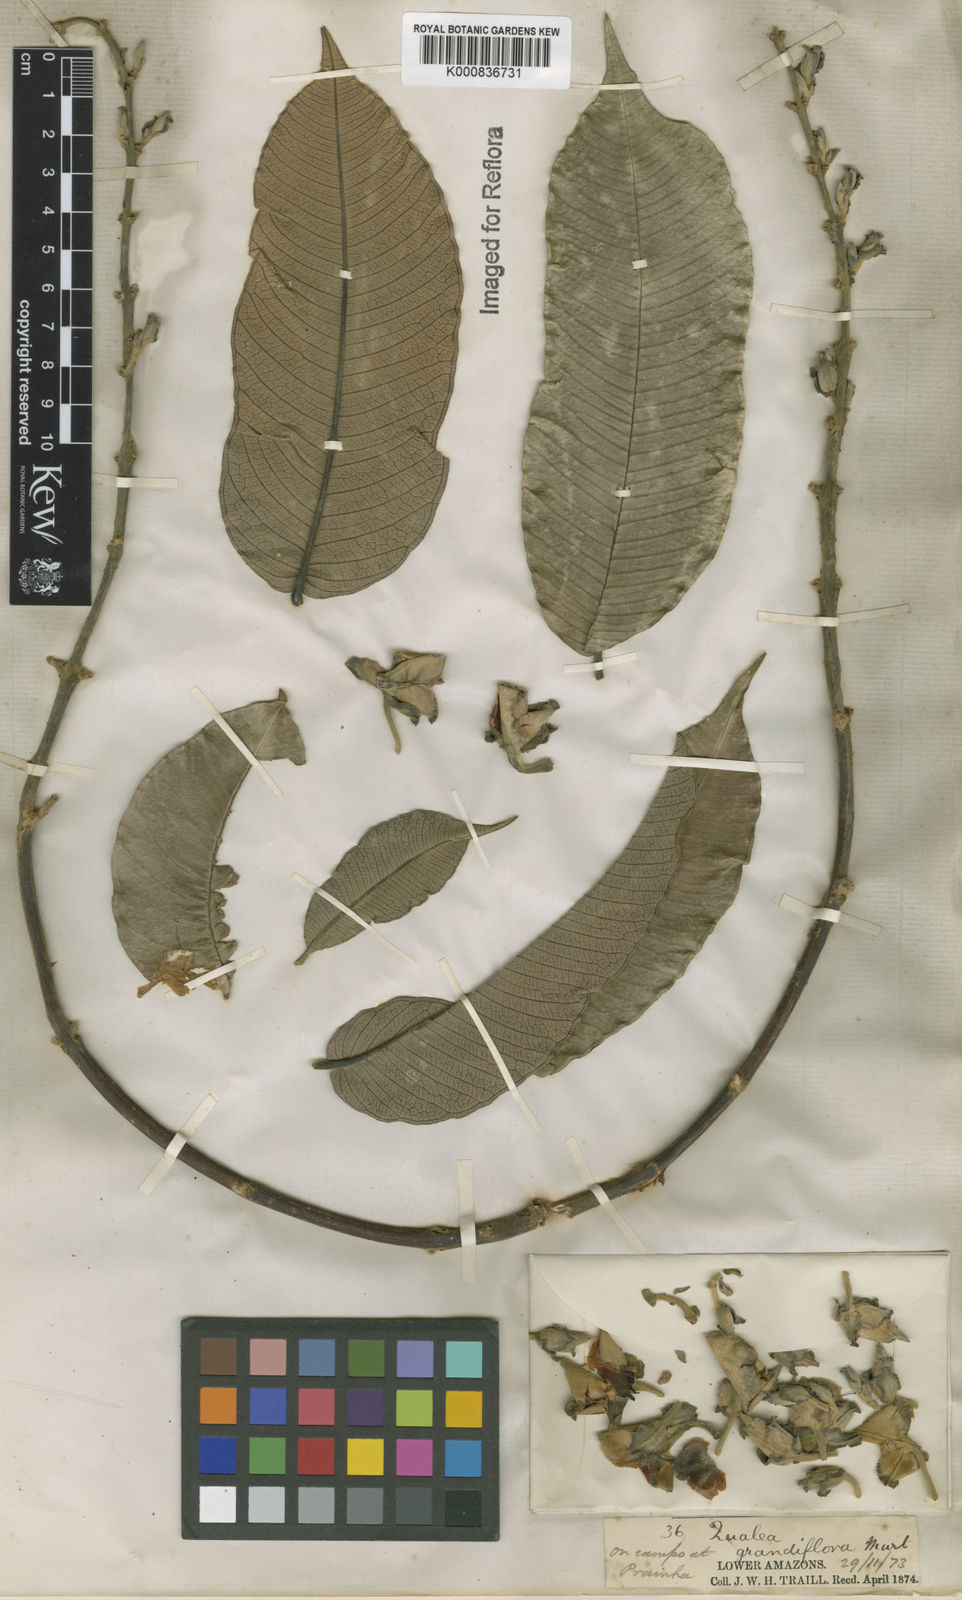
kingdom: Plantae
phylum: Tracheophyta
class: Magnoliopsida
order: Myrtales
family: Vochysiaceae
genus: Qualea
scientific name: Qualea grandiflora
